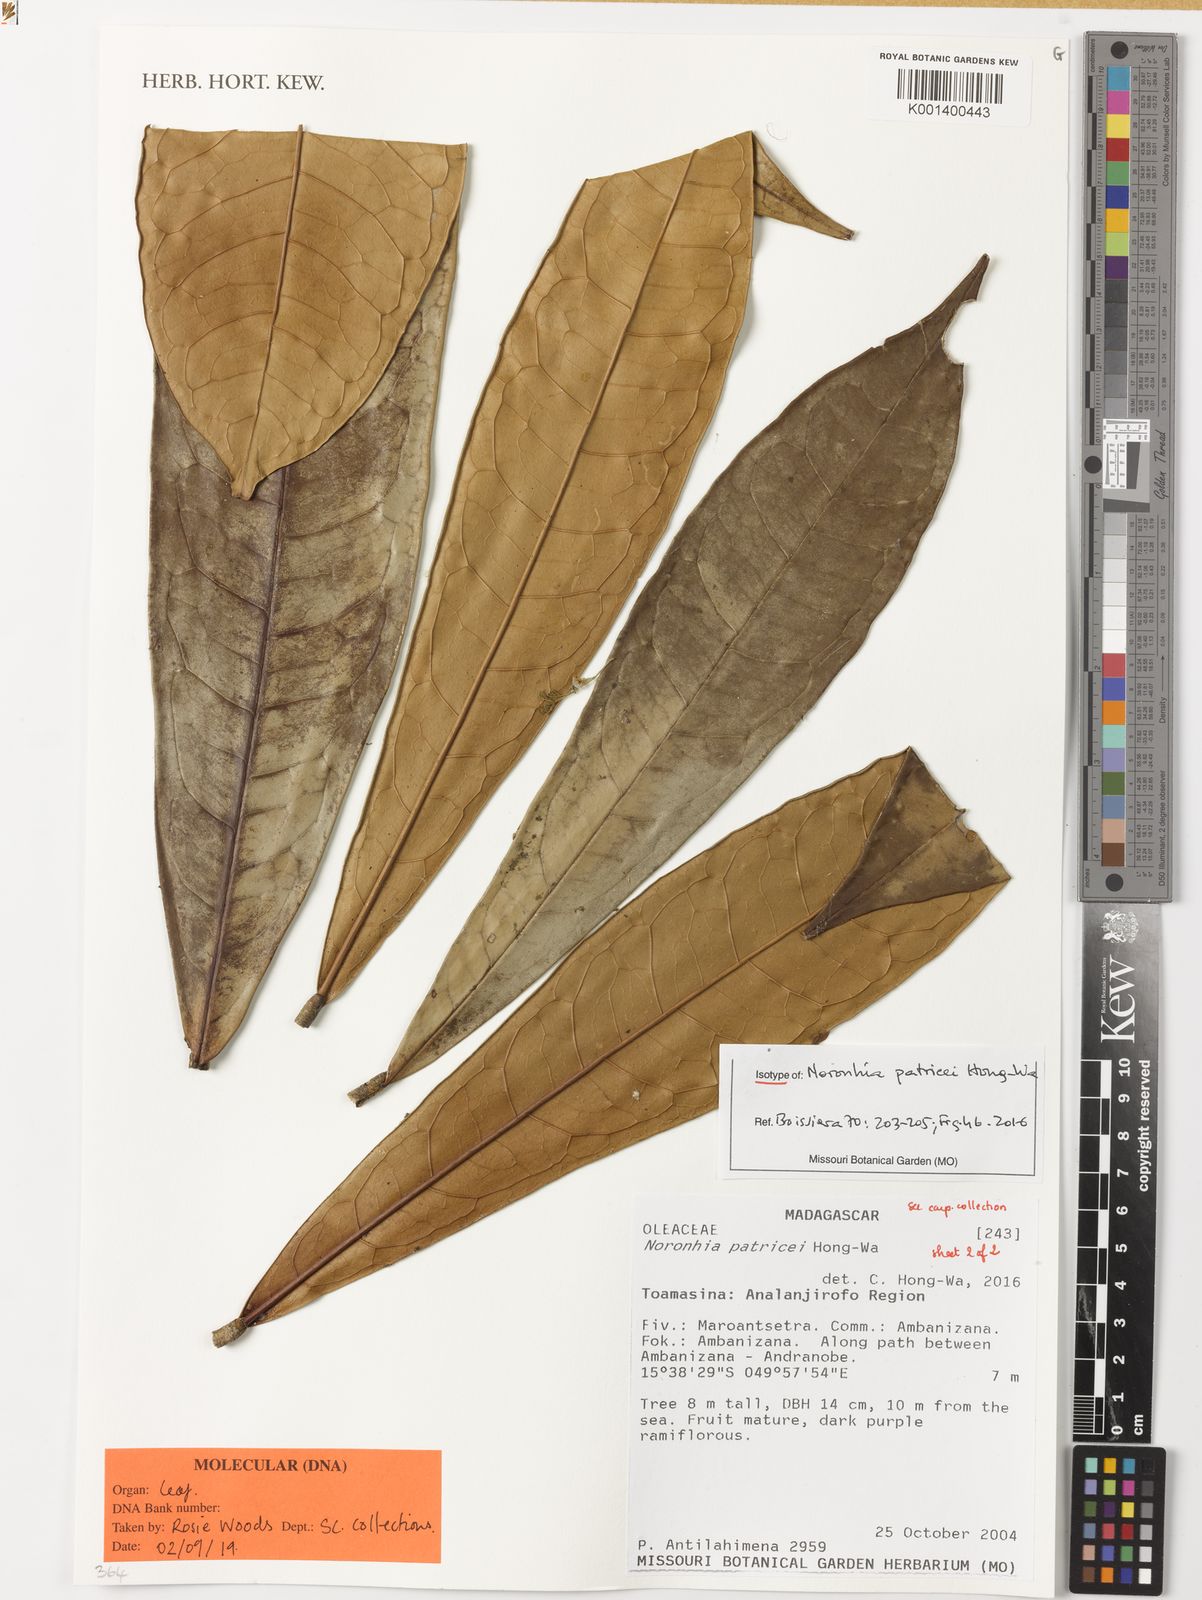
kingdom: Plantae
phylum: Tracheophyta
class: Magnoliopsida
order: Lamiales
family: Oleaceae
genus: Noronhia
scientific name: Noronhia patricei
